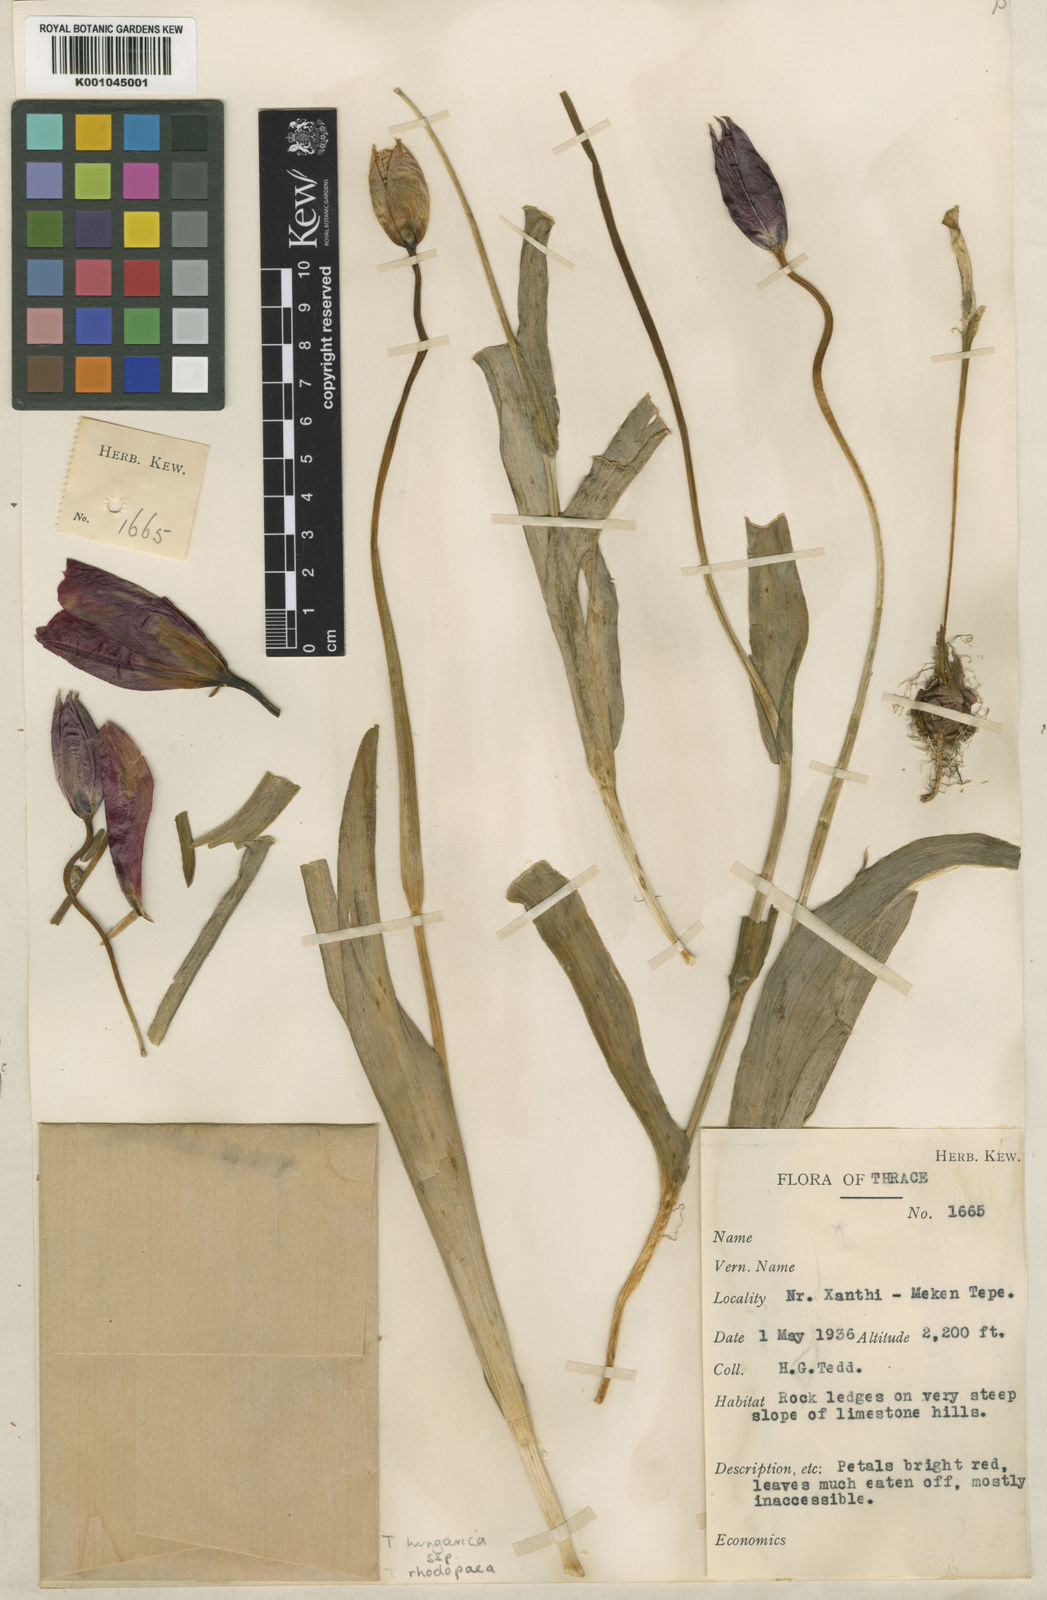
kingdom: Plantae
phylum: Tracheophyta
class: Liliopsida
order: Liliales
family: Liliaceae
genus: Tulipa
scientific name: Tulipa hungarica
